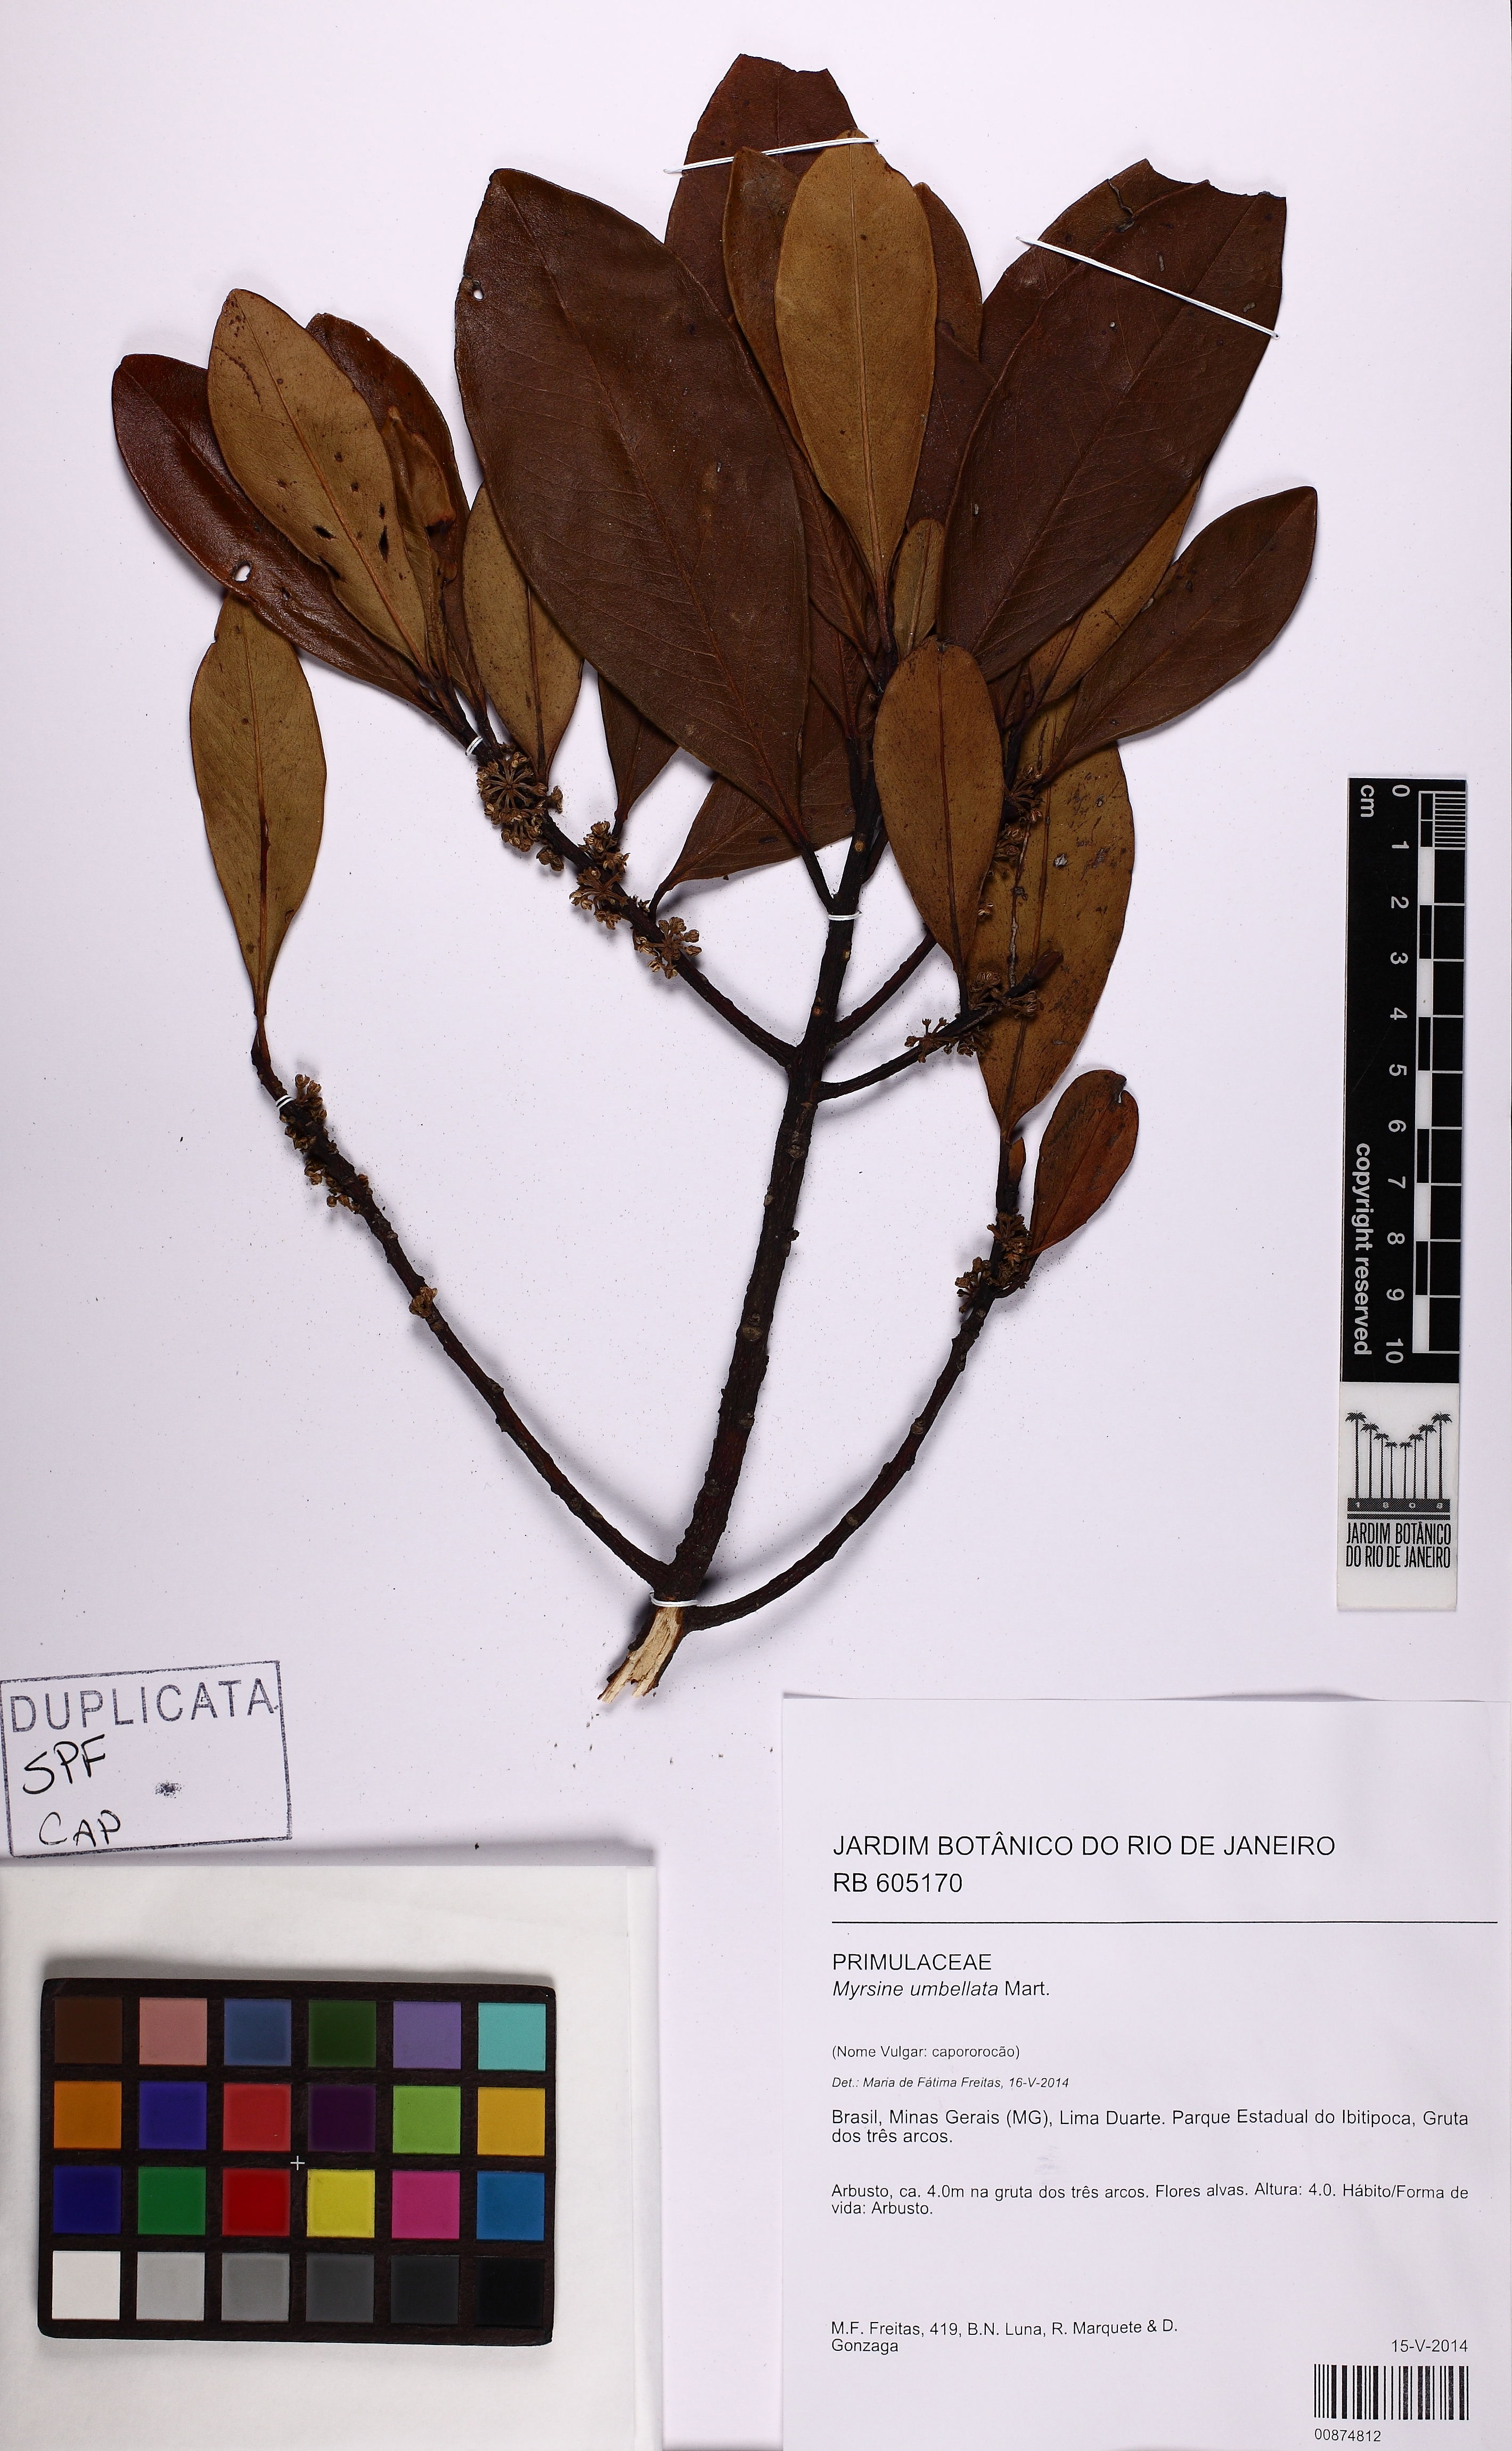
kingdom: Plantae
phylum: Tracheophyta
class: Magnoliopsida
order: Ericales
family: Primulaceae
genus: Myrsine
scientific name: Myrsine umbellata
